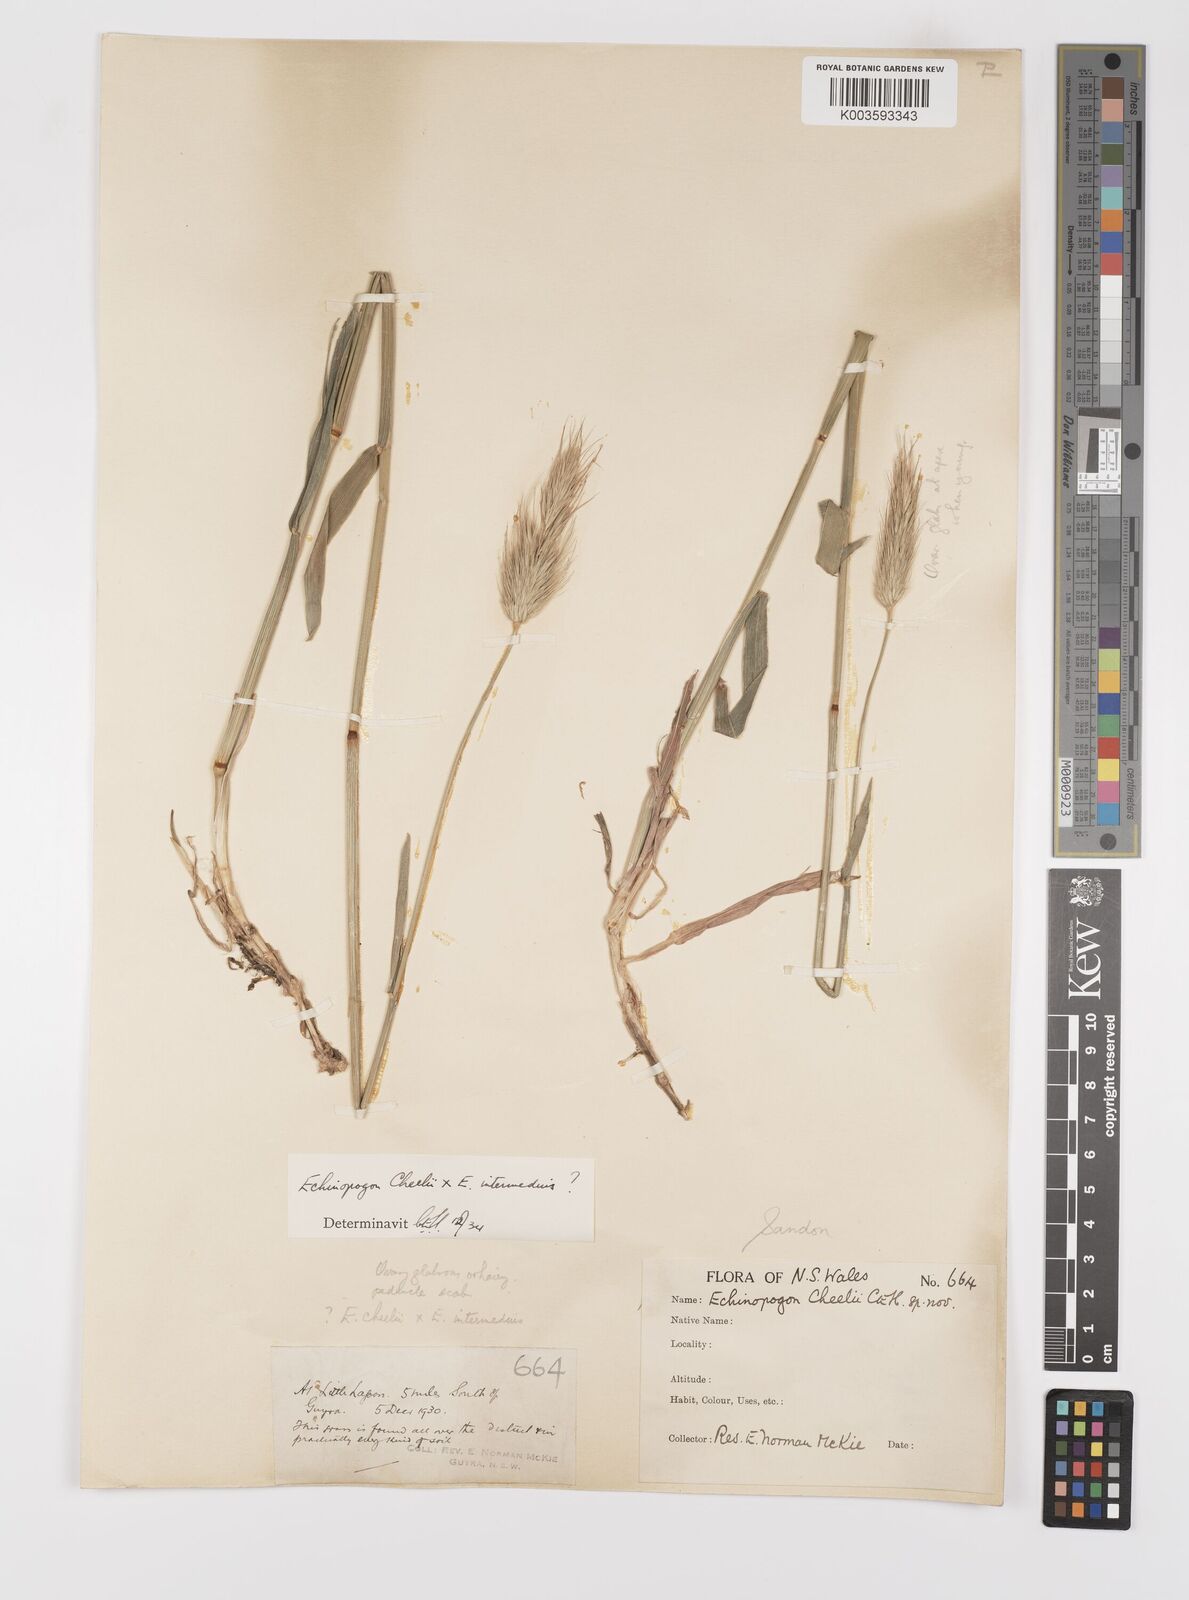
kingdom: Plantae
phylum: Tracheophyta
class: Liliopsida
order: Poales
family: Poaceae
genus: Echinopogon
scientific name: Echinopogon cheelii
